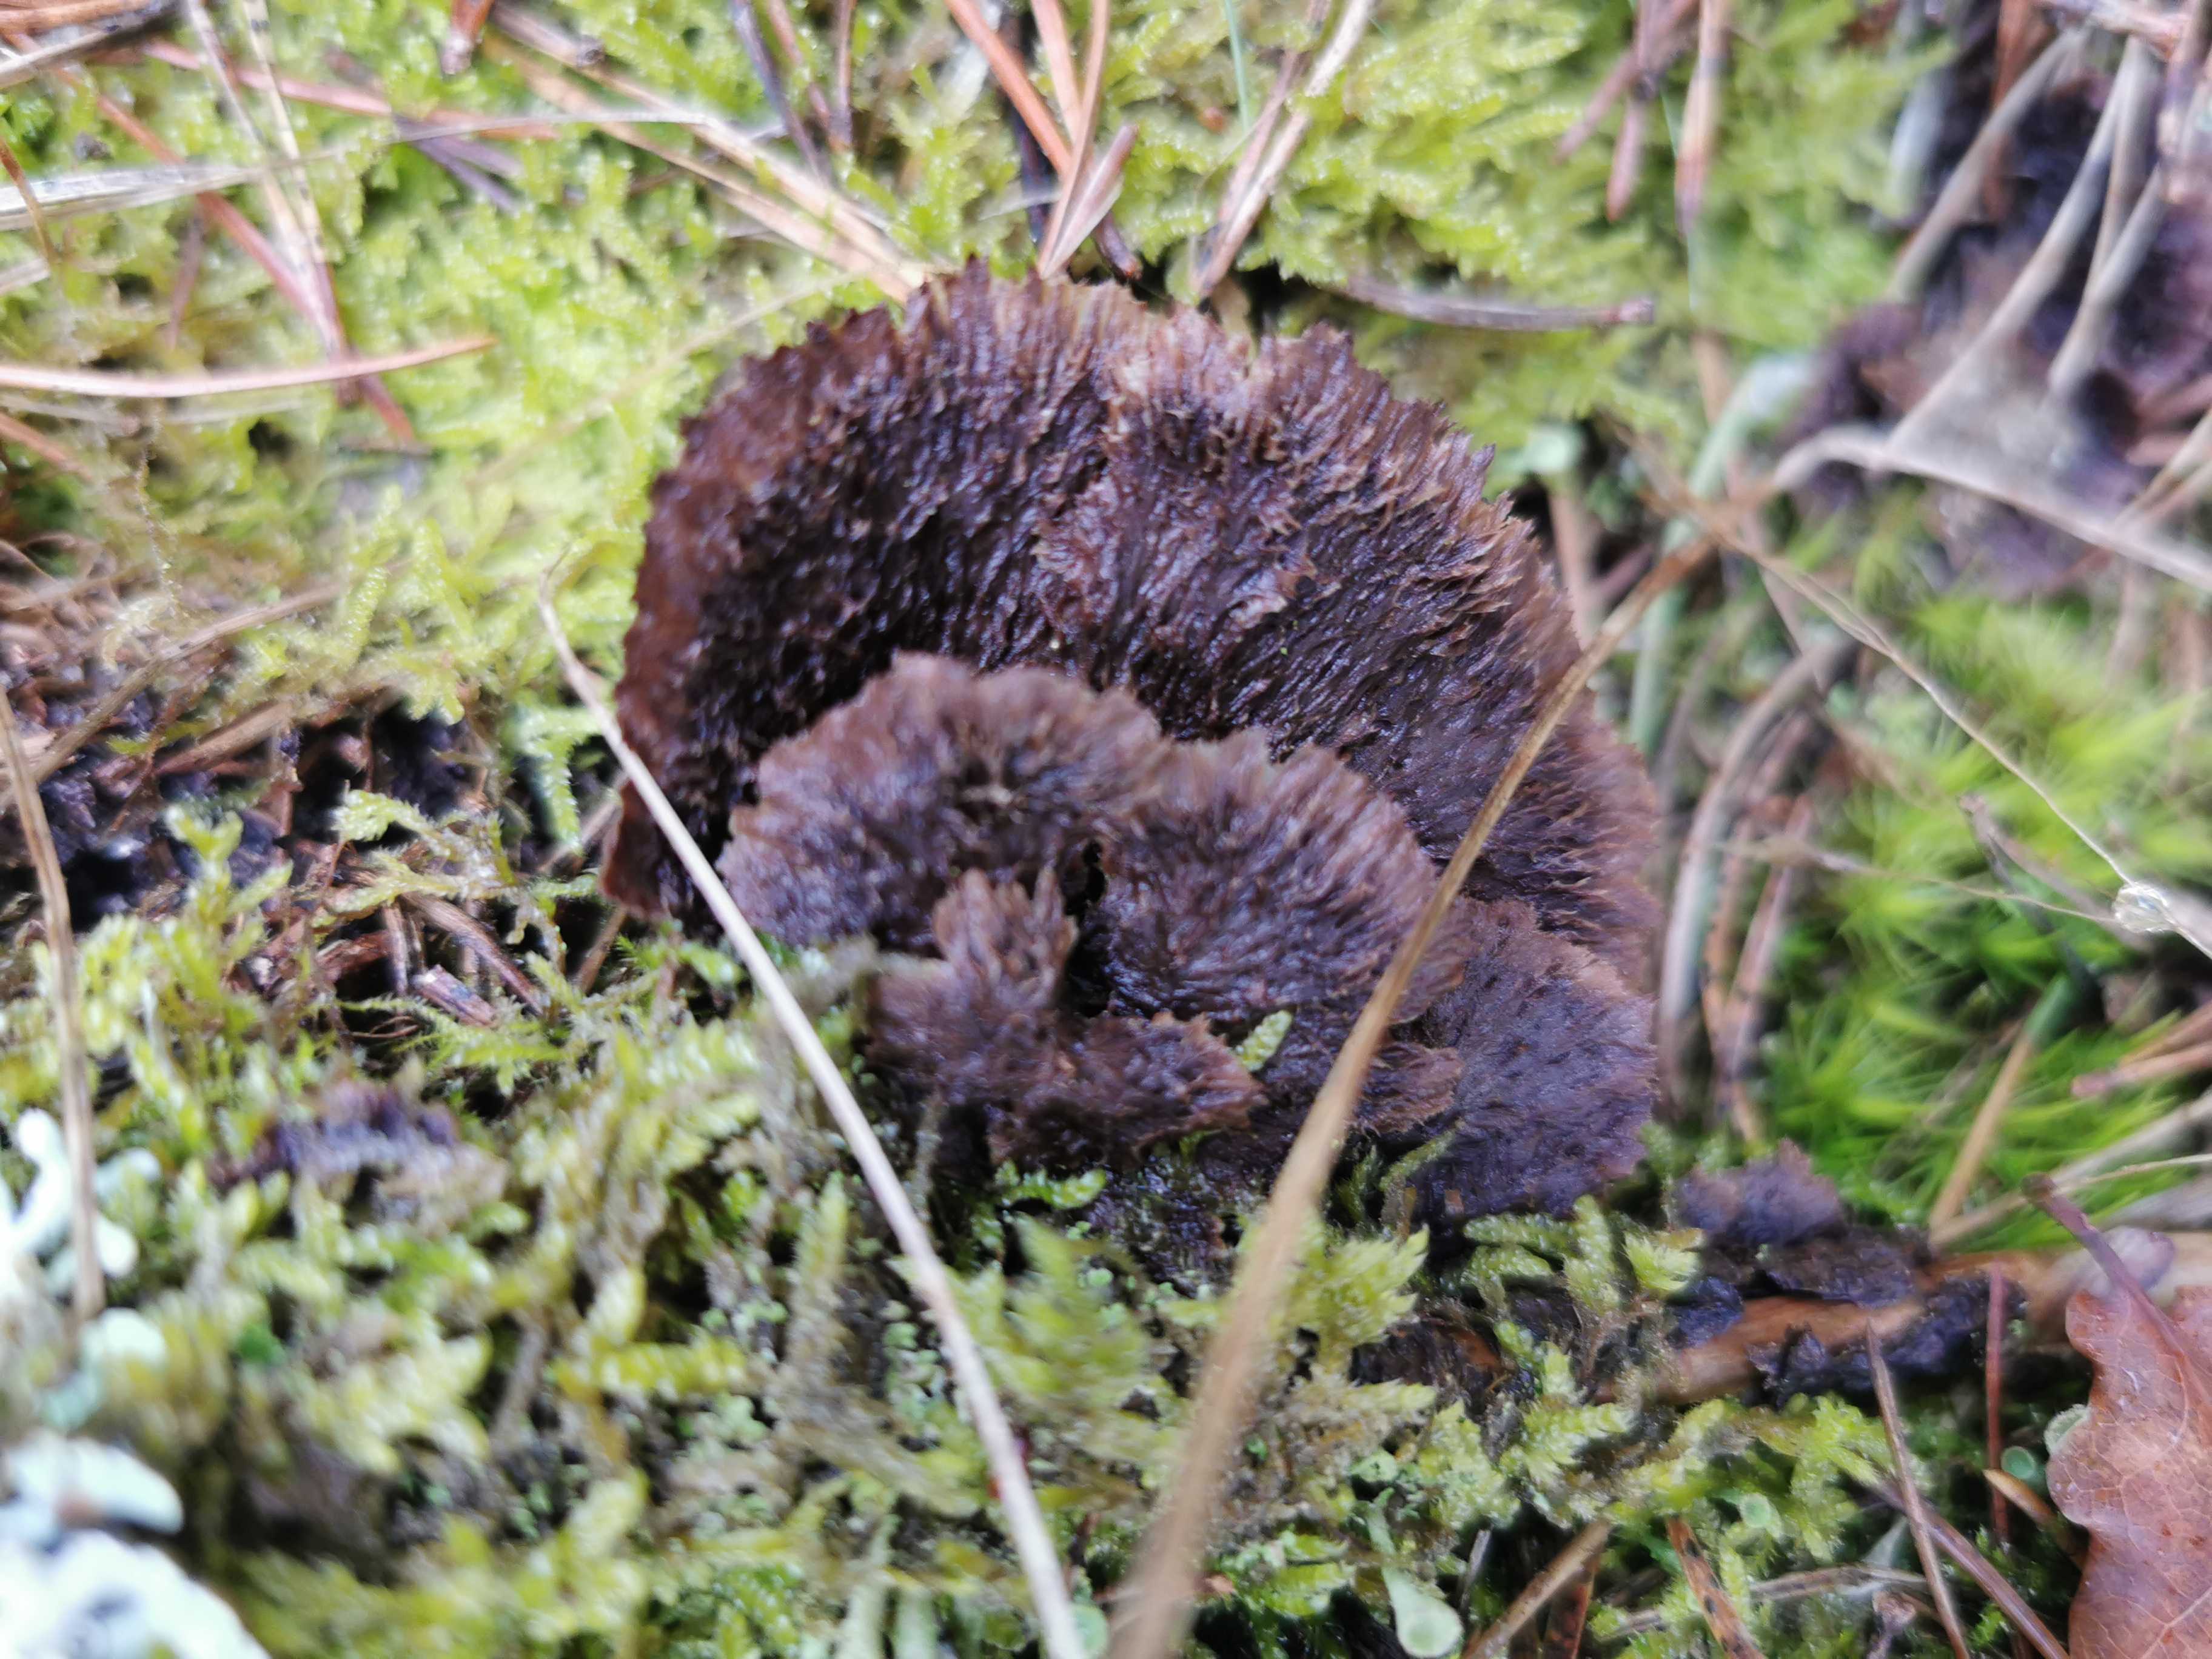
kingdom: Fungi
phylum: Basidiomycota
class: Agaricomycetes
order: Thelephorales
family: Thelephoraceae
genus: Thelephora
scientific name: Thelephora terrestris
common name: fliget frynsesvamp
